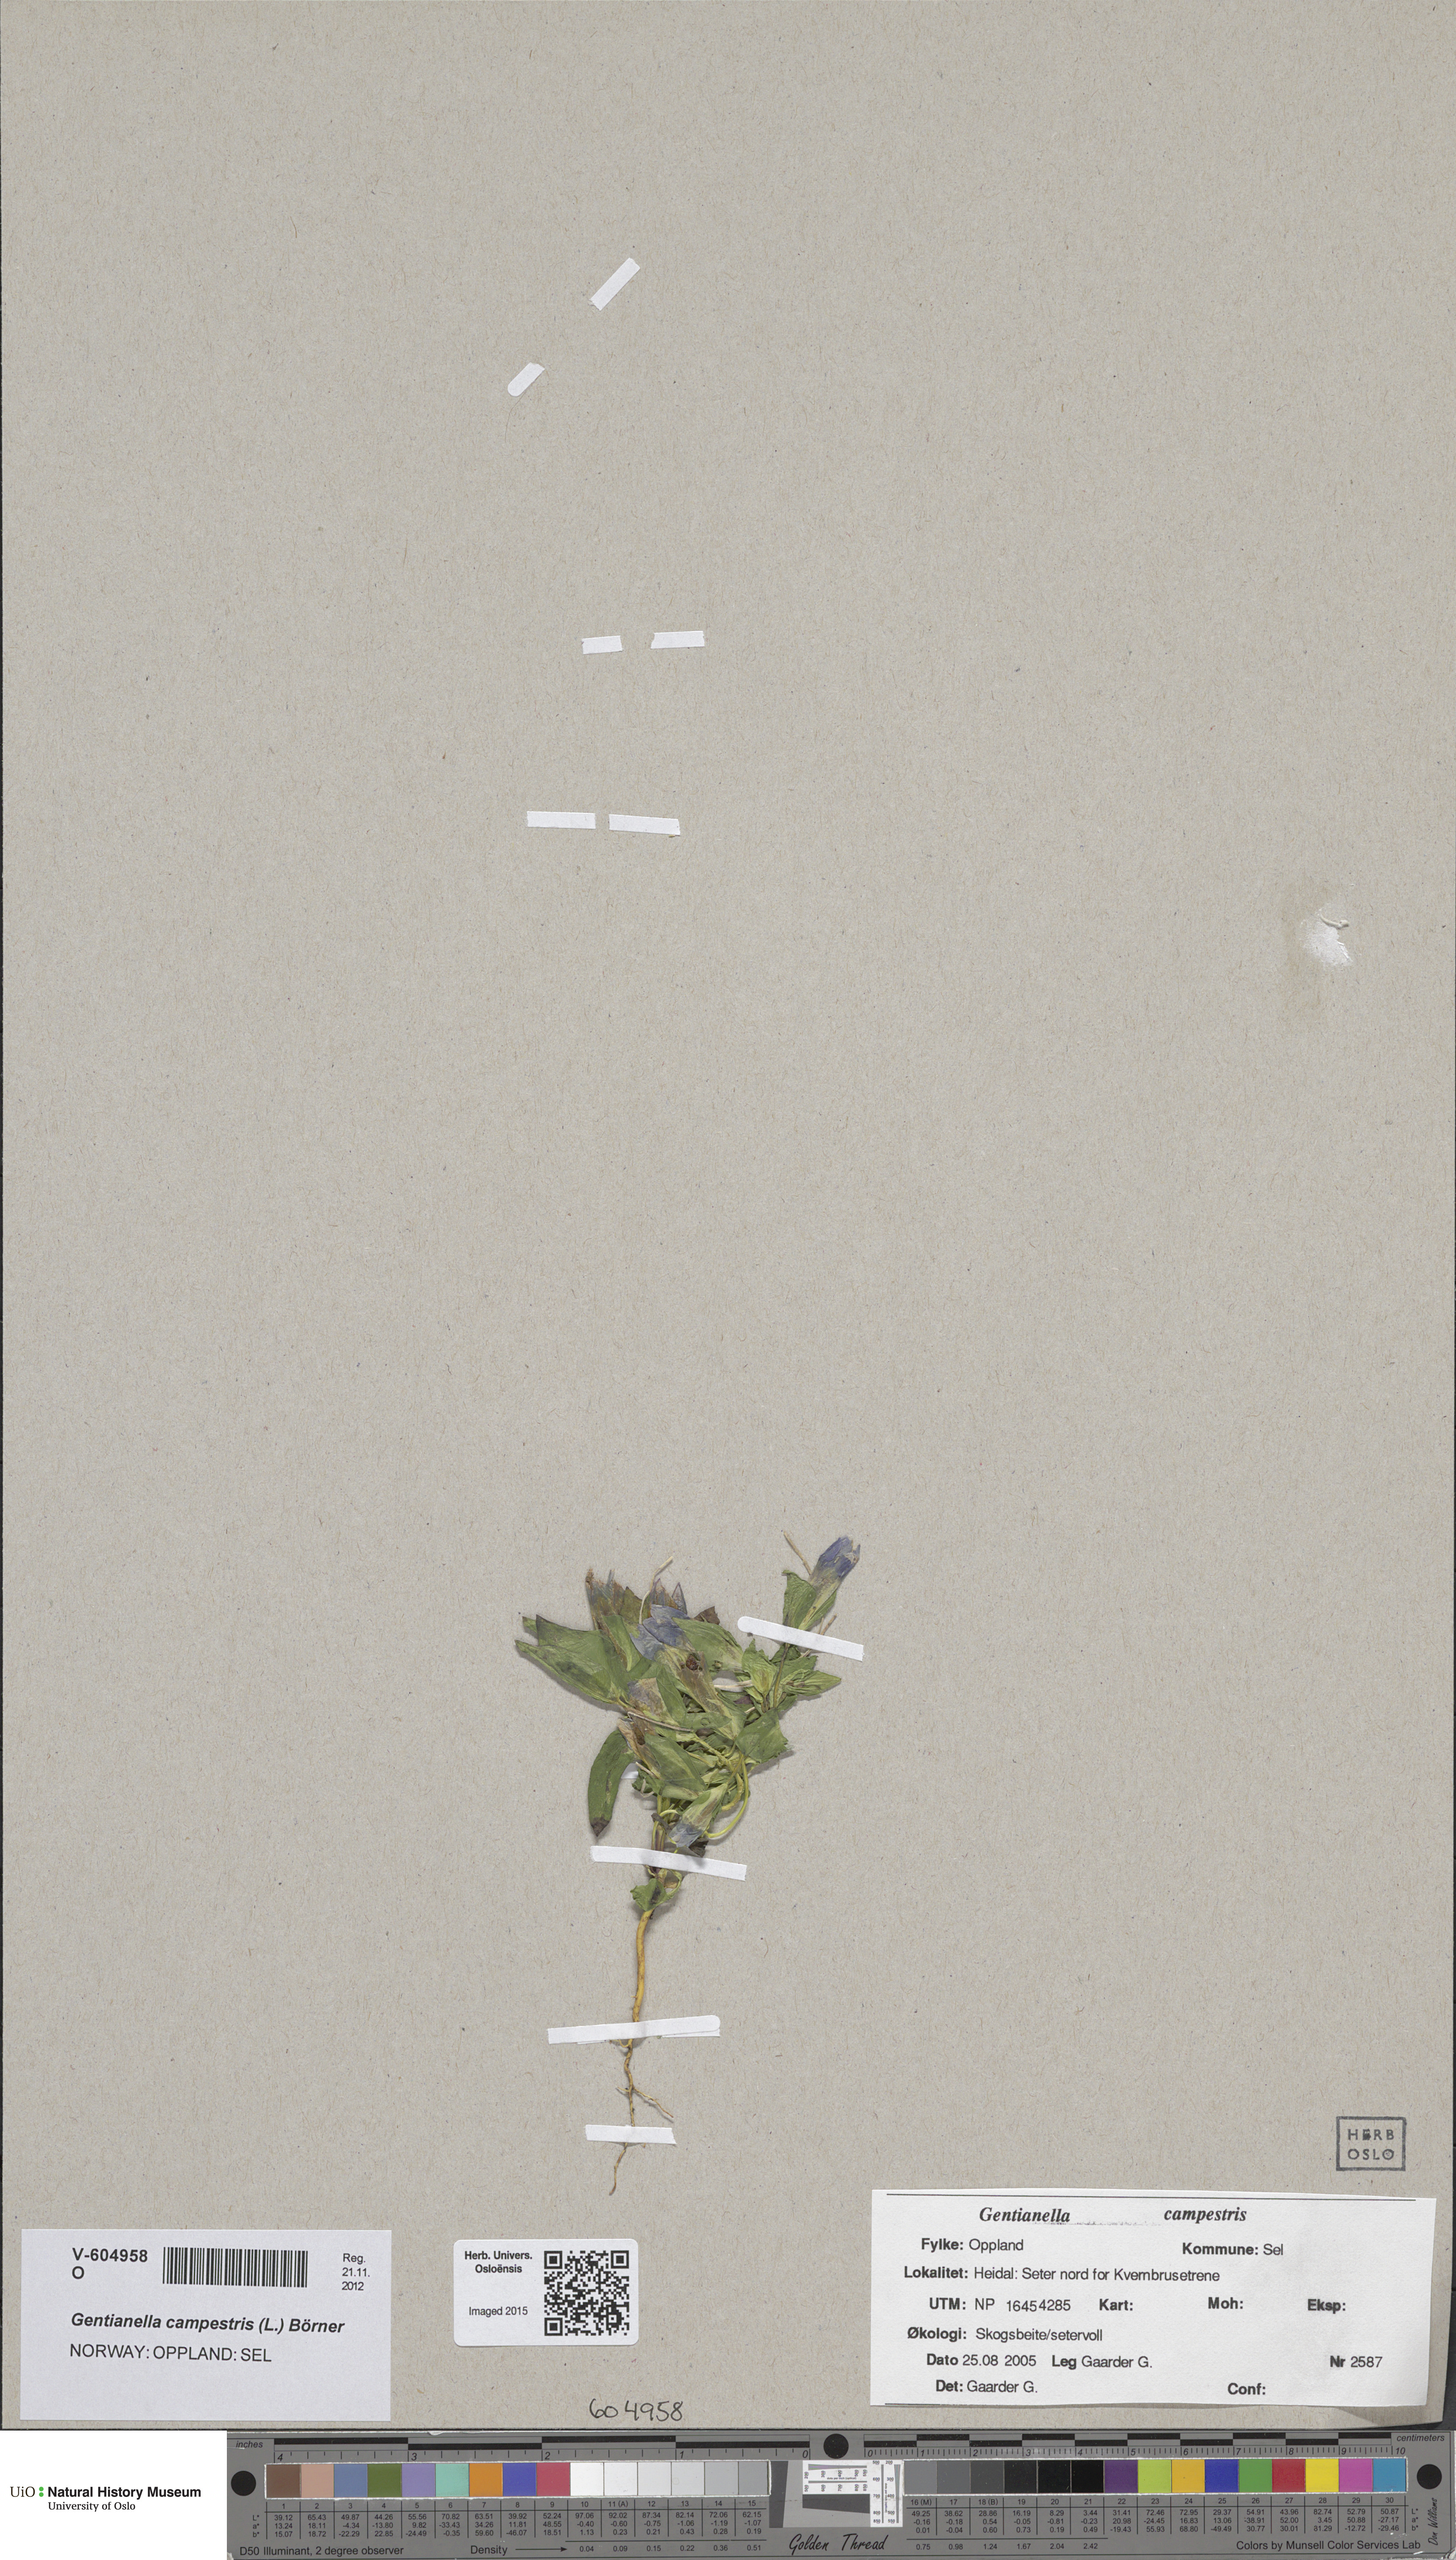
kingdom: Plantae
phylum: Tracheophyta
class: Magnoliopsida
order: Gentianales
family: Gentianaceae
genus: Gentianella
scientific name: Gentianella campestris
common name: Field gentian
